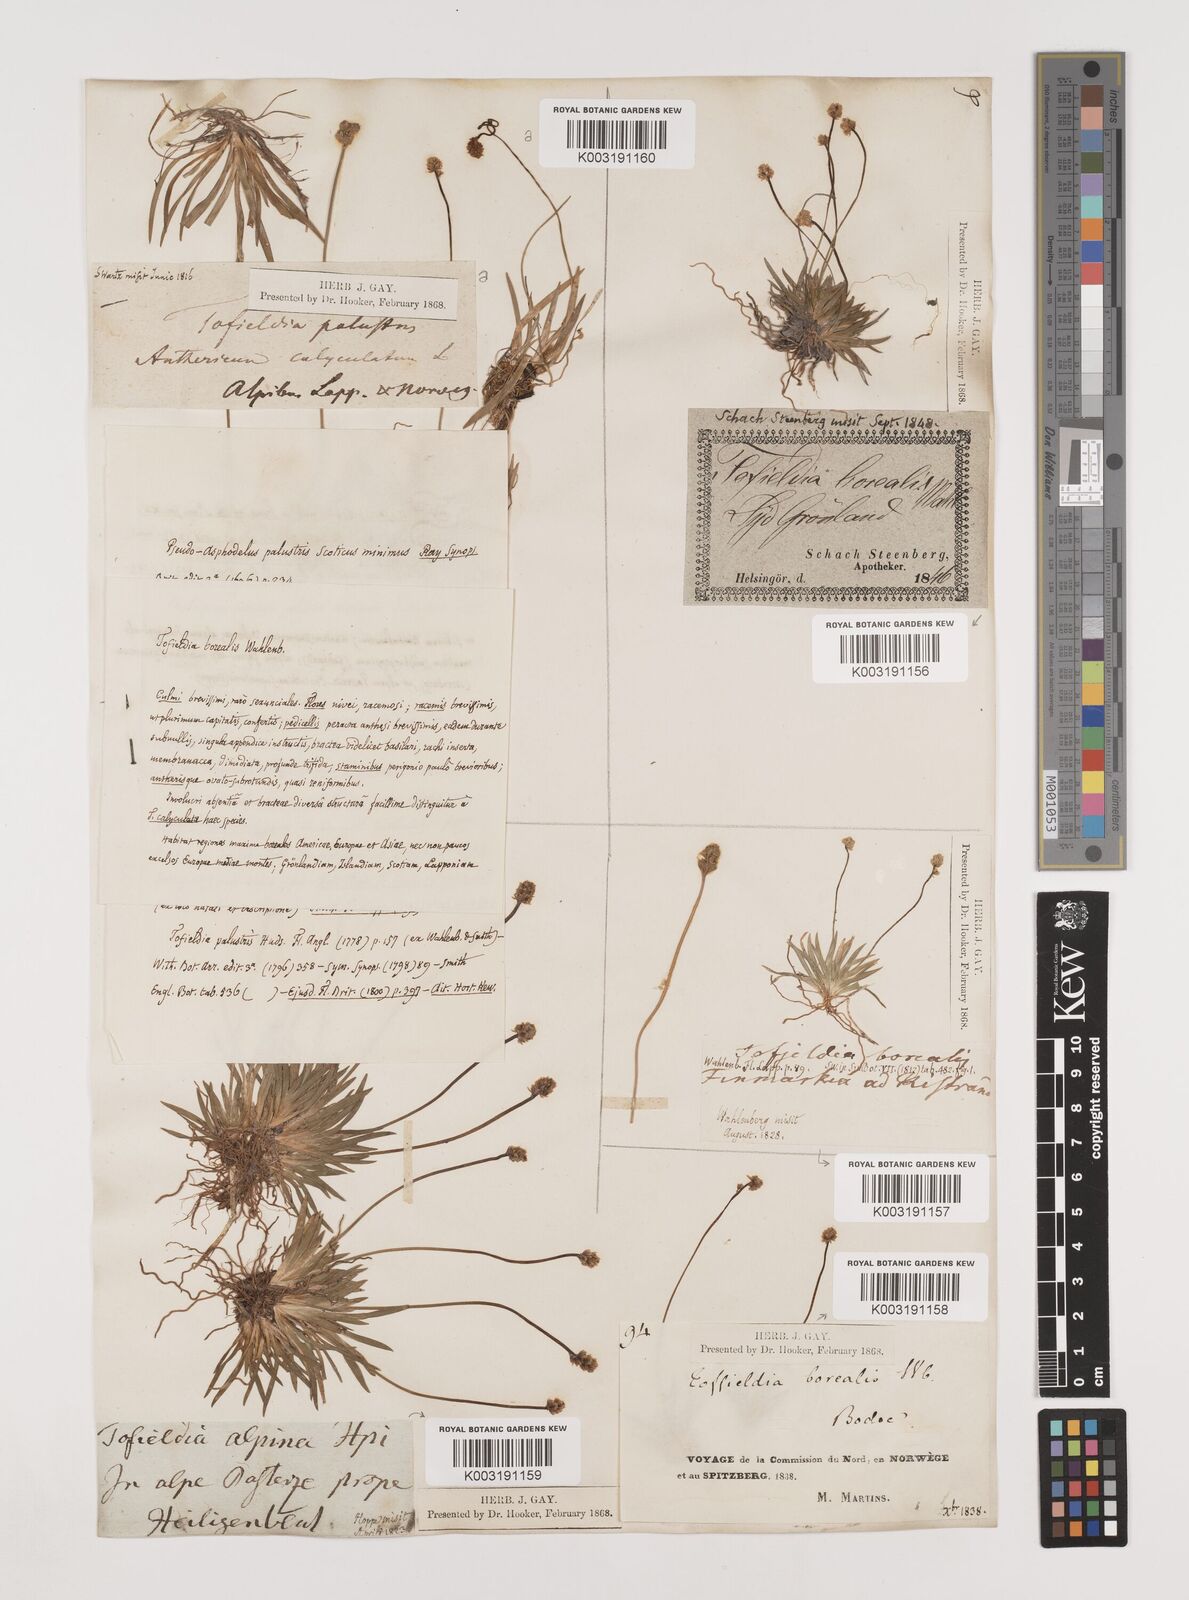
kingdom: Plantae
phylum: Tracheophyta
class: Liliopsida
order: Alismatales
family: Tofieldiaceae
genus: Tofieldia
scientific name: Tofieldia pusilla
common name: Scottish false asphodel
